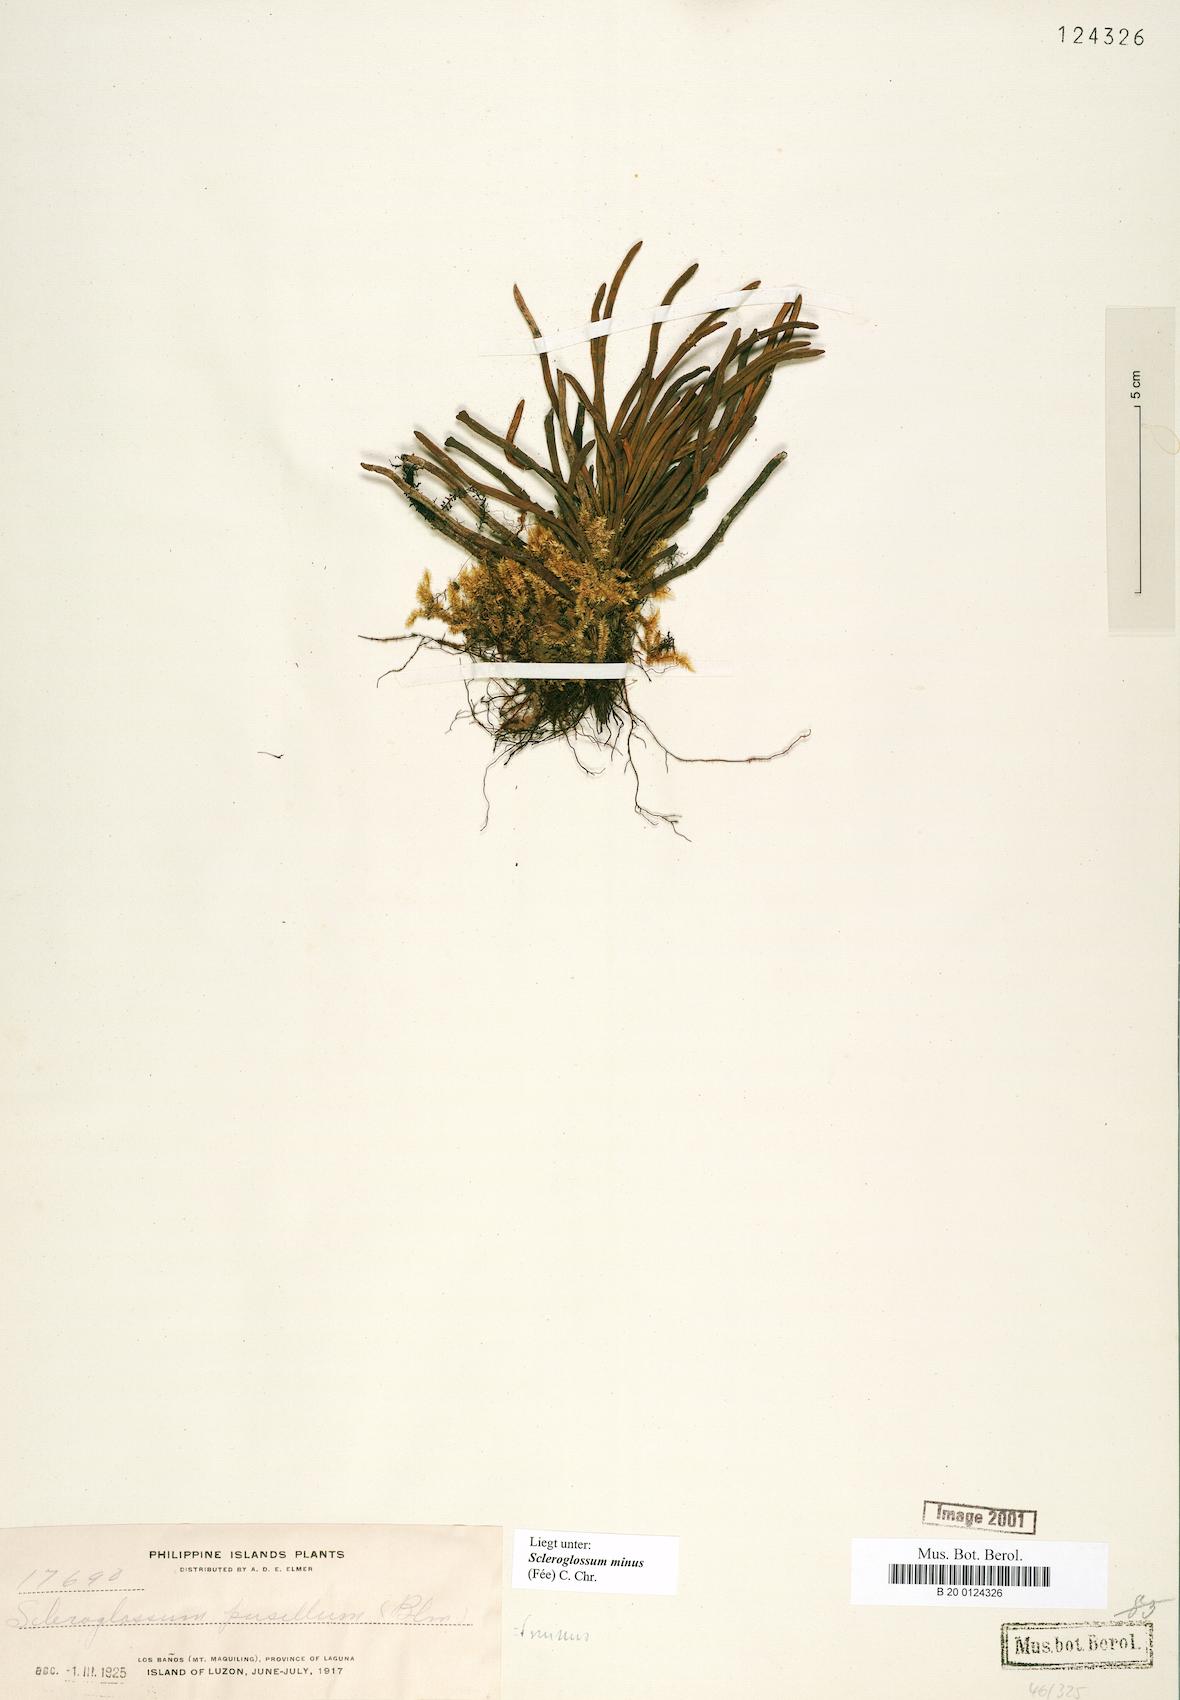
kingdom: Plantae
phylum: Tracheophyta
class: Polypodiopsida
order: Polypodiales
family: Polypodiaceae
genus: Scleroglossum
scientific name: Scleroglossum pusillum
